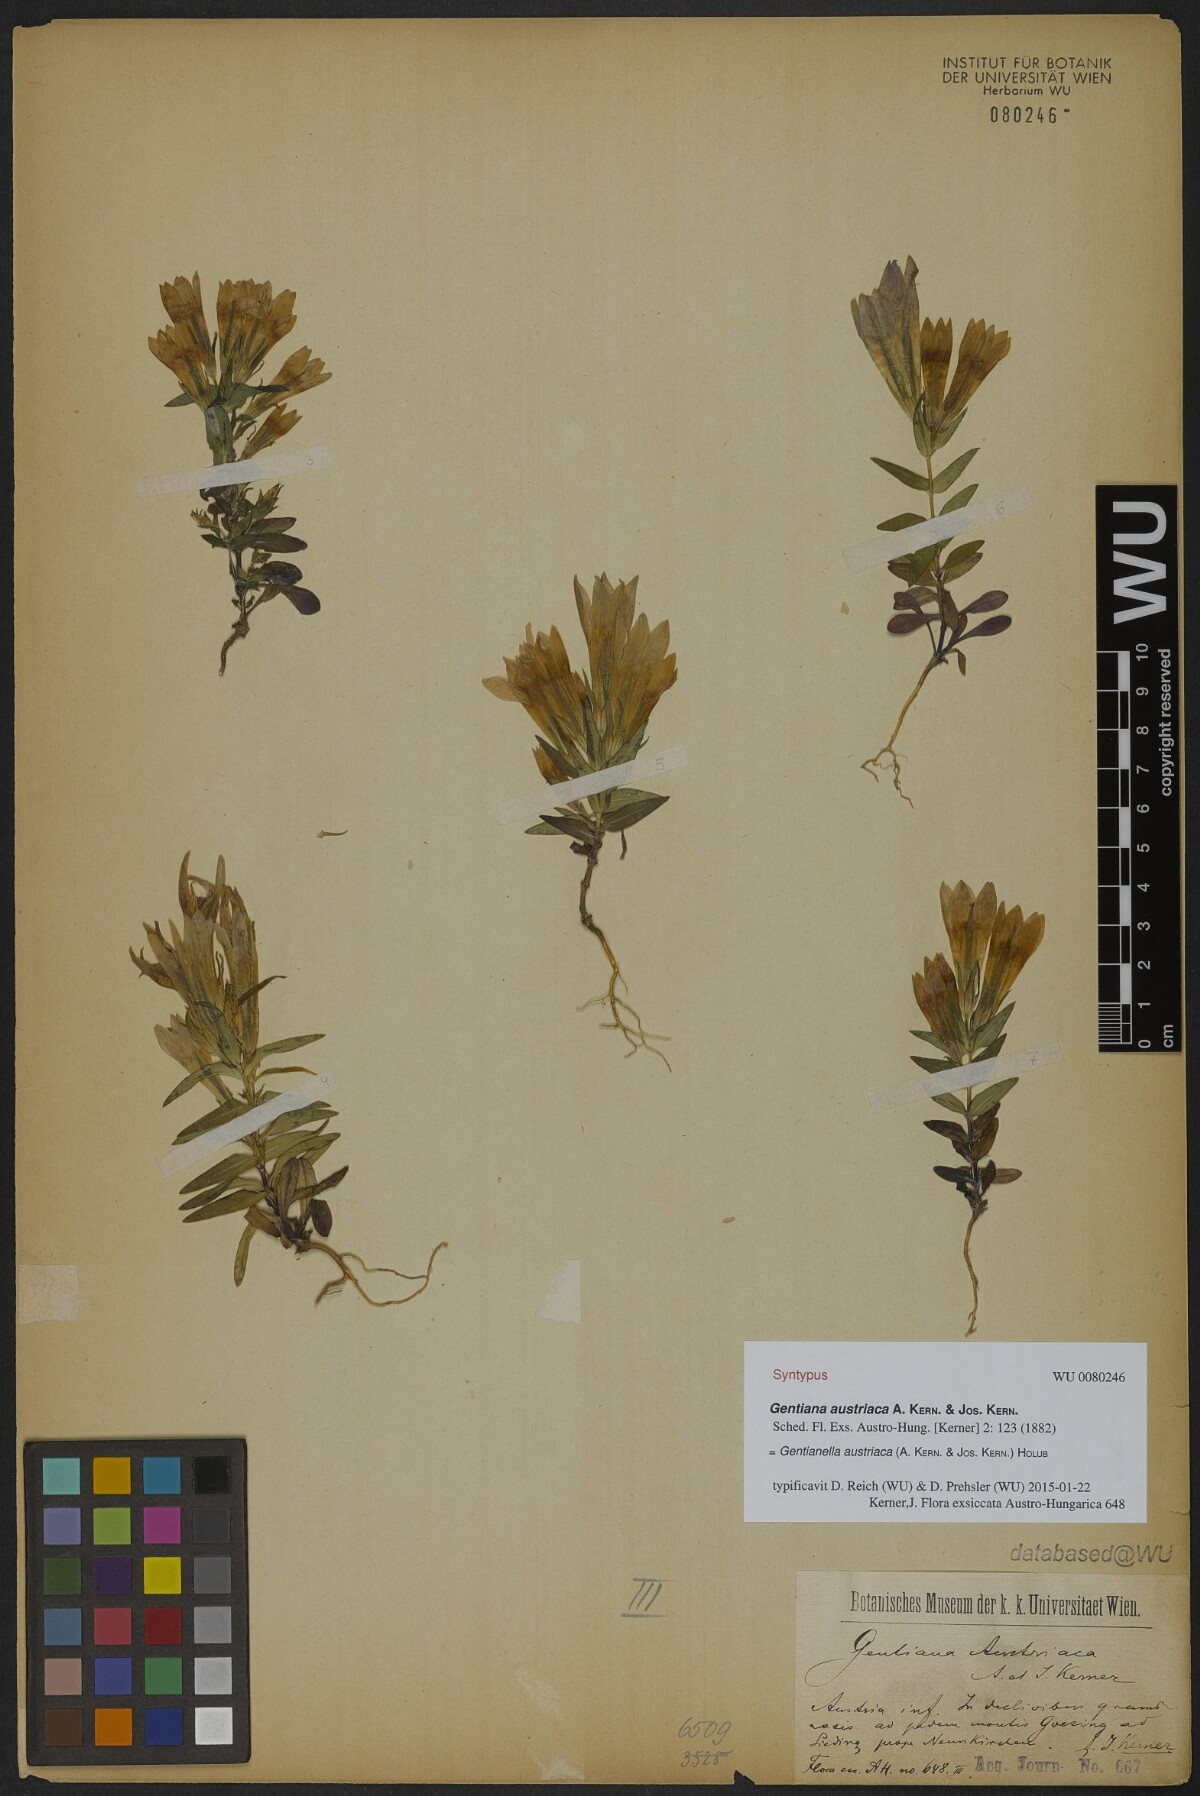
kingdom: Plantae
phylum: Tracheophyta
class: Magnoliopsida
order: Gentianales
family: Gentianaceae
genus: Gentianella
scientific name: Gentianella austriaca
